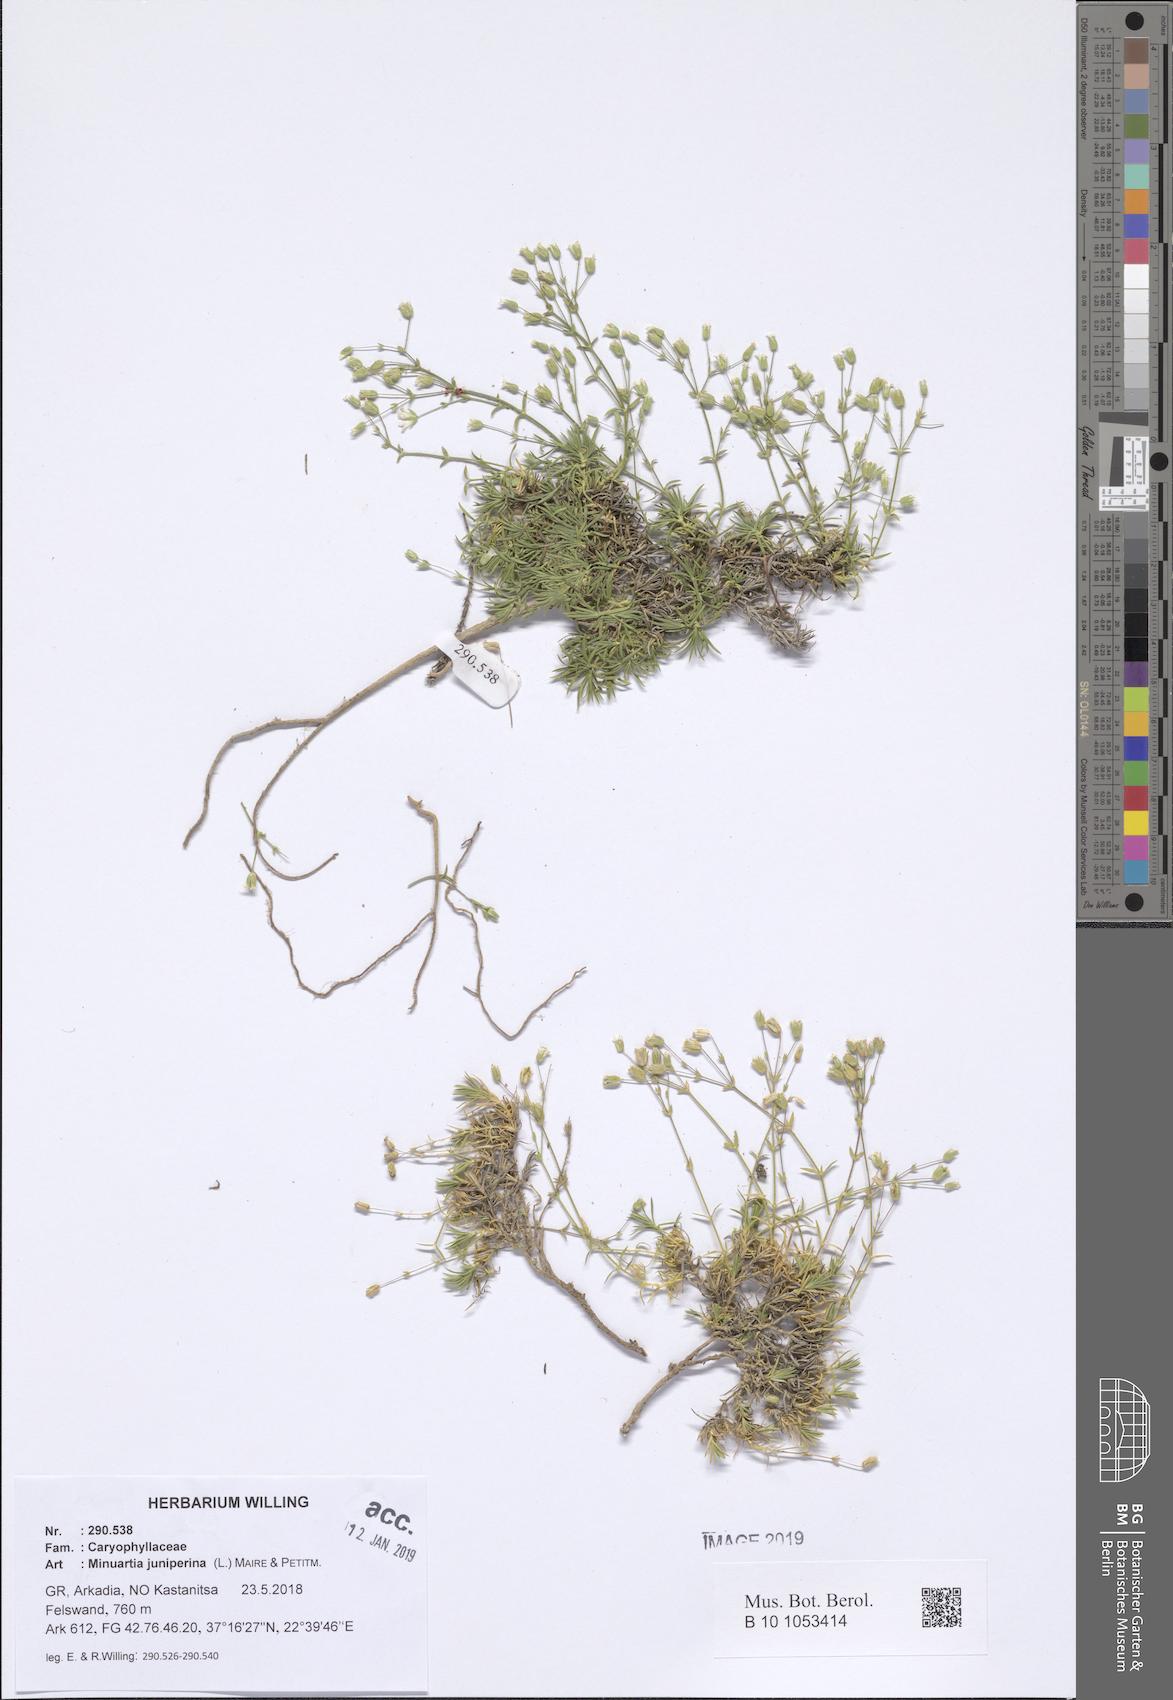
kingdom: Plantae
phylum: Tracheophyta
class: Magnoliopsida
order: Caryophyllales
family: Caryophyllaceae
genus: Sabulina
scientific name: Sabulina juniperina
